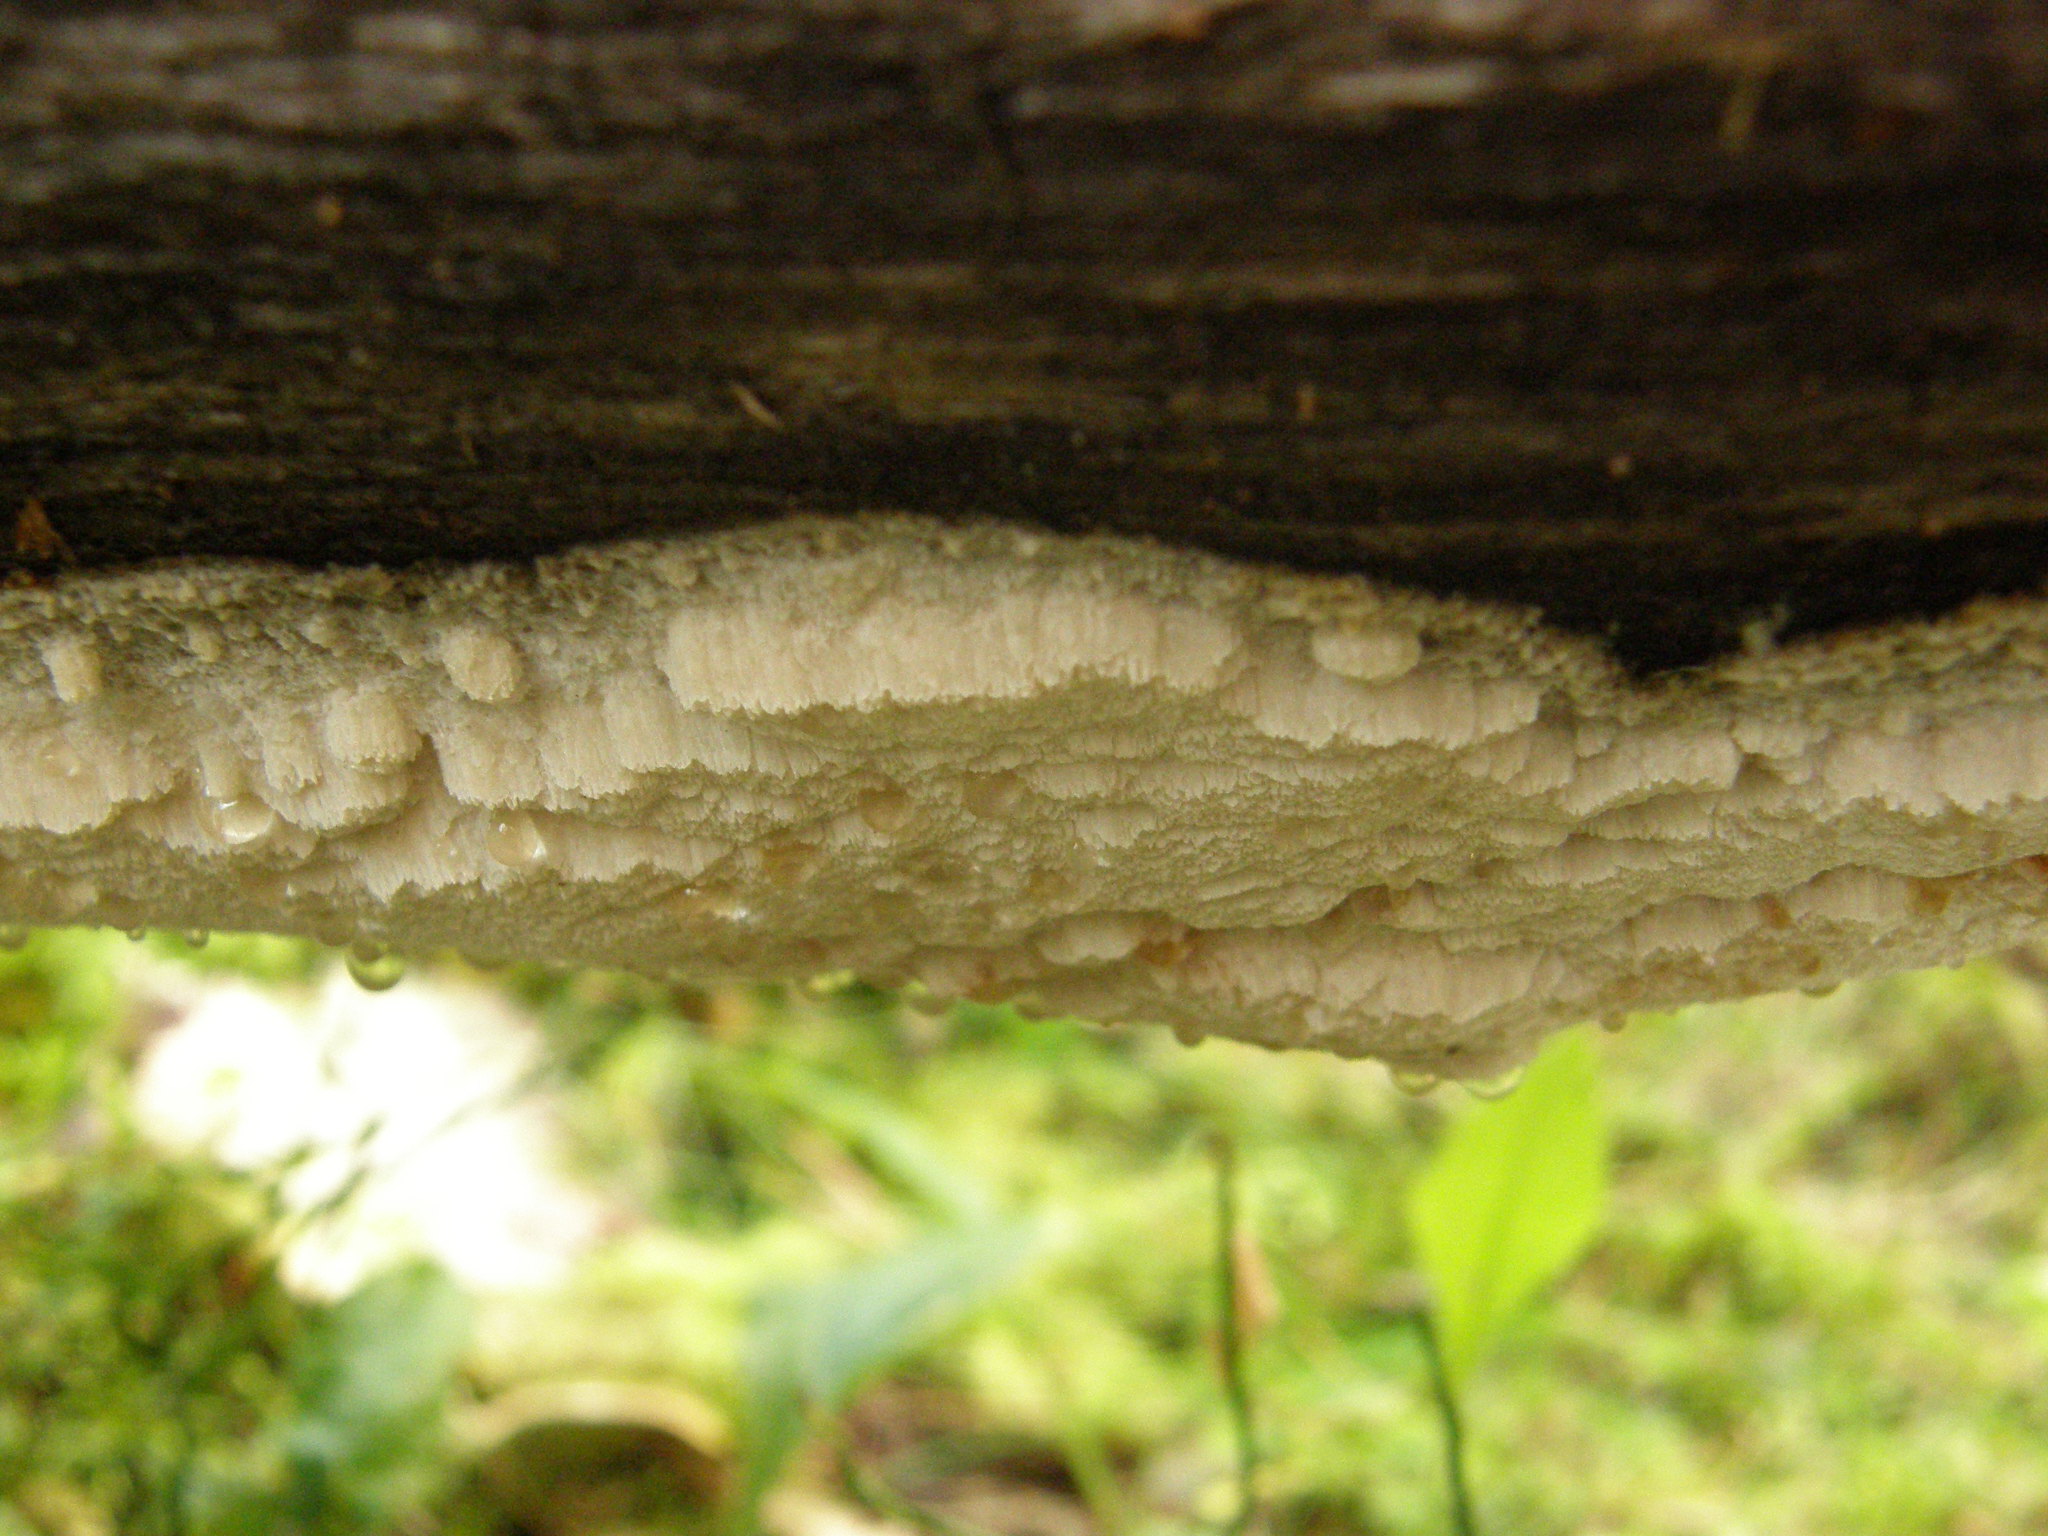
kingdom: Fungi
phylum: Basidiomycota
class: Agaricomycetes
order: Polyporales
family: Incrustoporiaceae
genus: Tyromyces
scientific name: Tyromyces odorus
